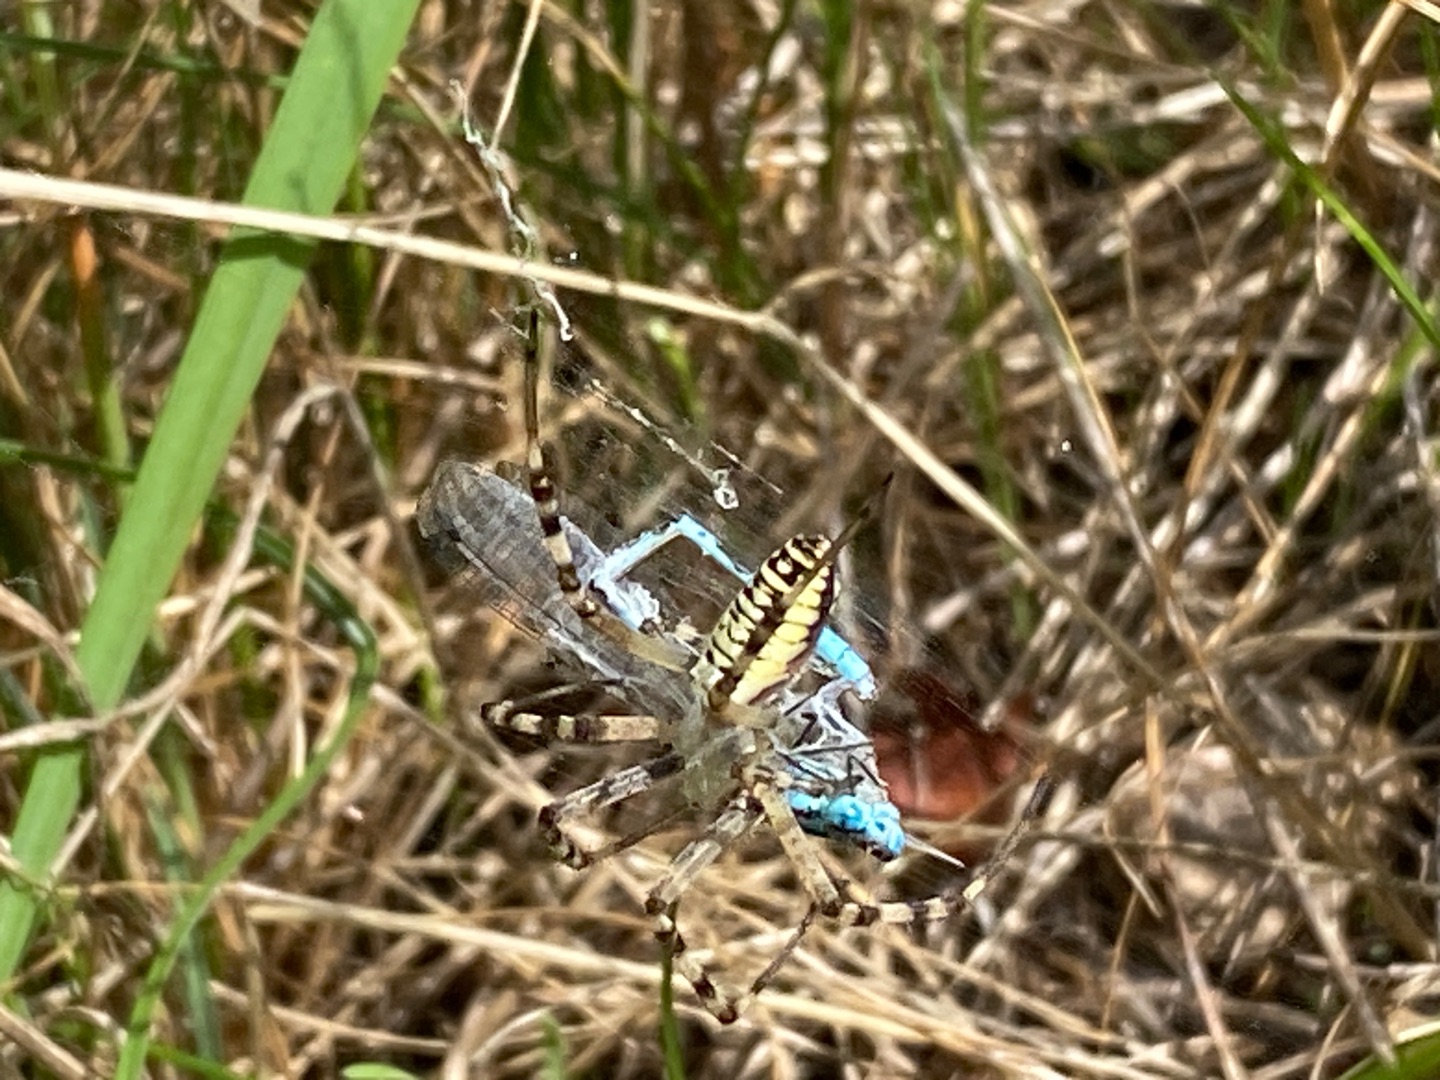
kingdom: Animalia
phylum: Arthropoda
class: Arachnida
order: Araneae
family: Araneidae
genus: Argiope
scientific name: Argiope bruennichi
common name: Hvepseedderkop
